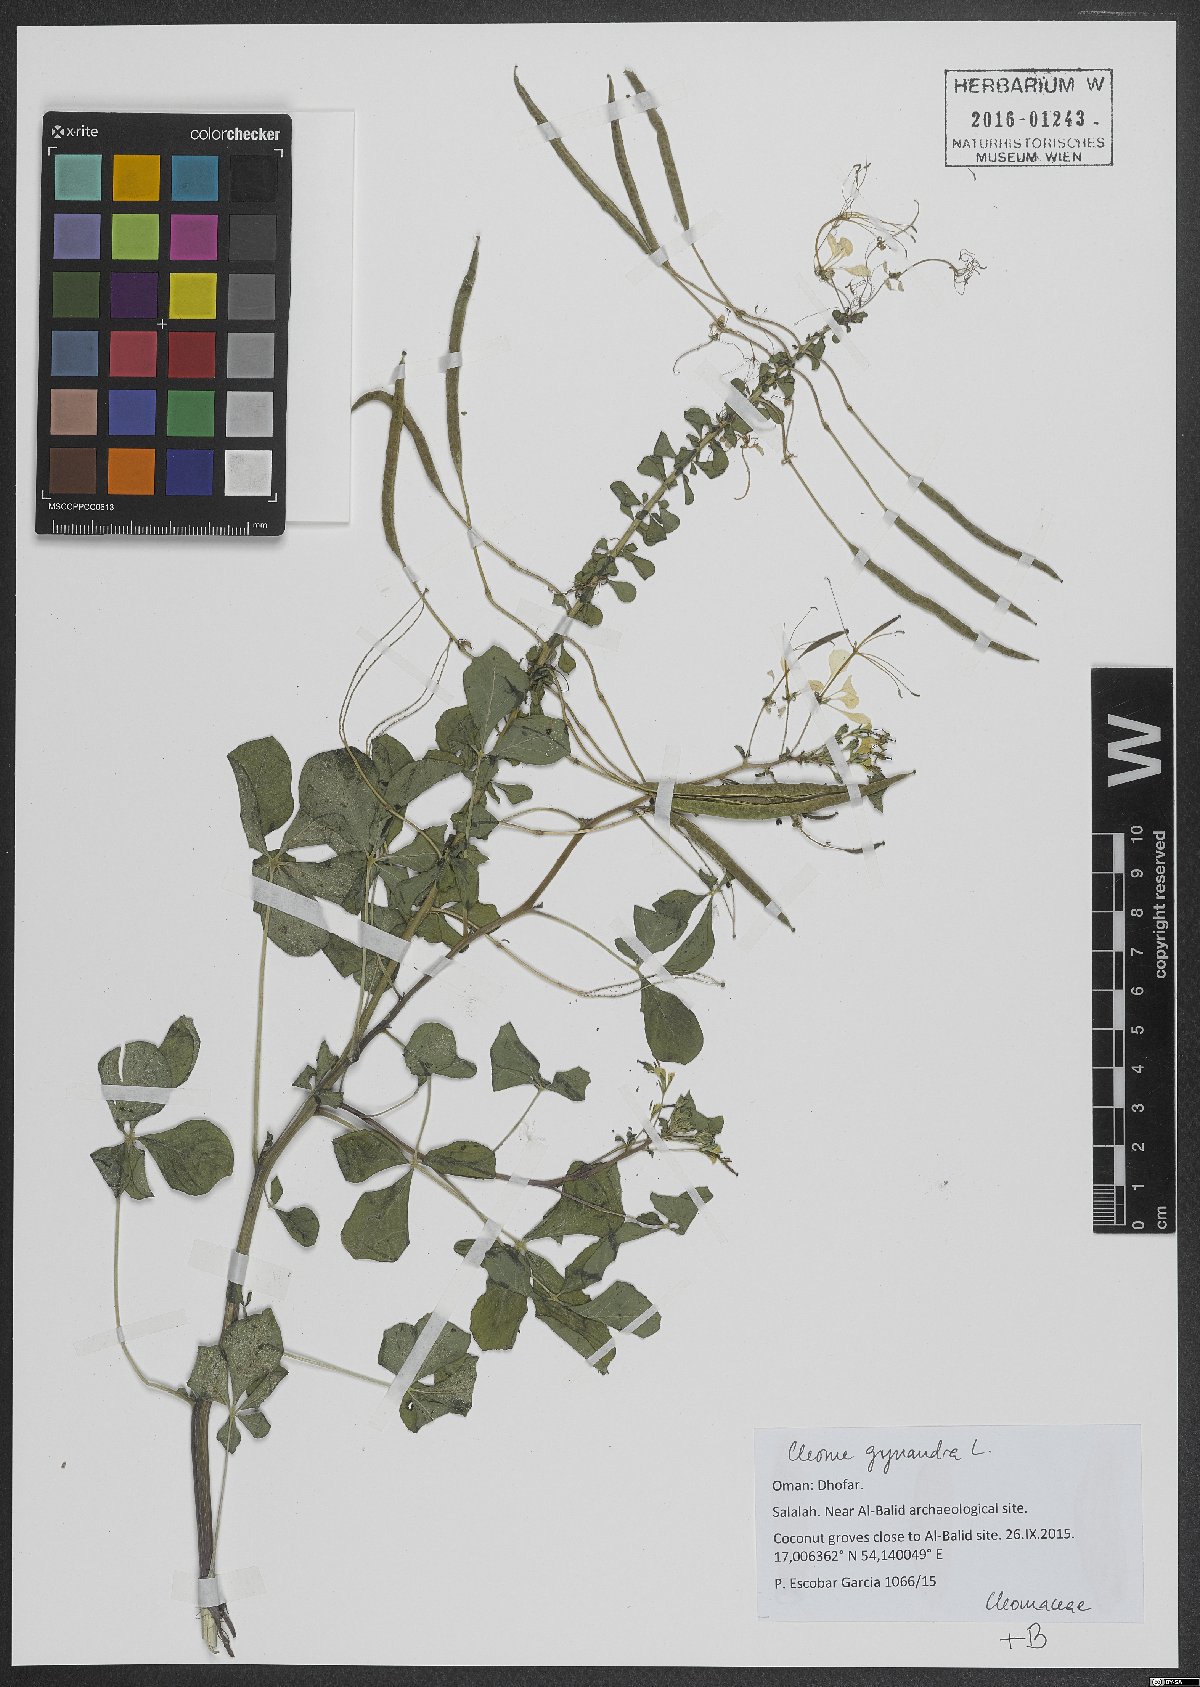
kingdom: Plantae
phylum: Tracheophyta
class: Magnoliopsida
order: Brassicales
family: Cleomaceae
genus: Gynandropsis
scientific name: Gynandropsis gynandra
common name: Spiderwisp
